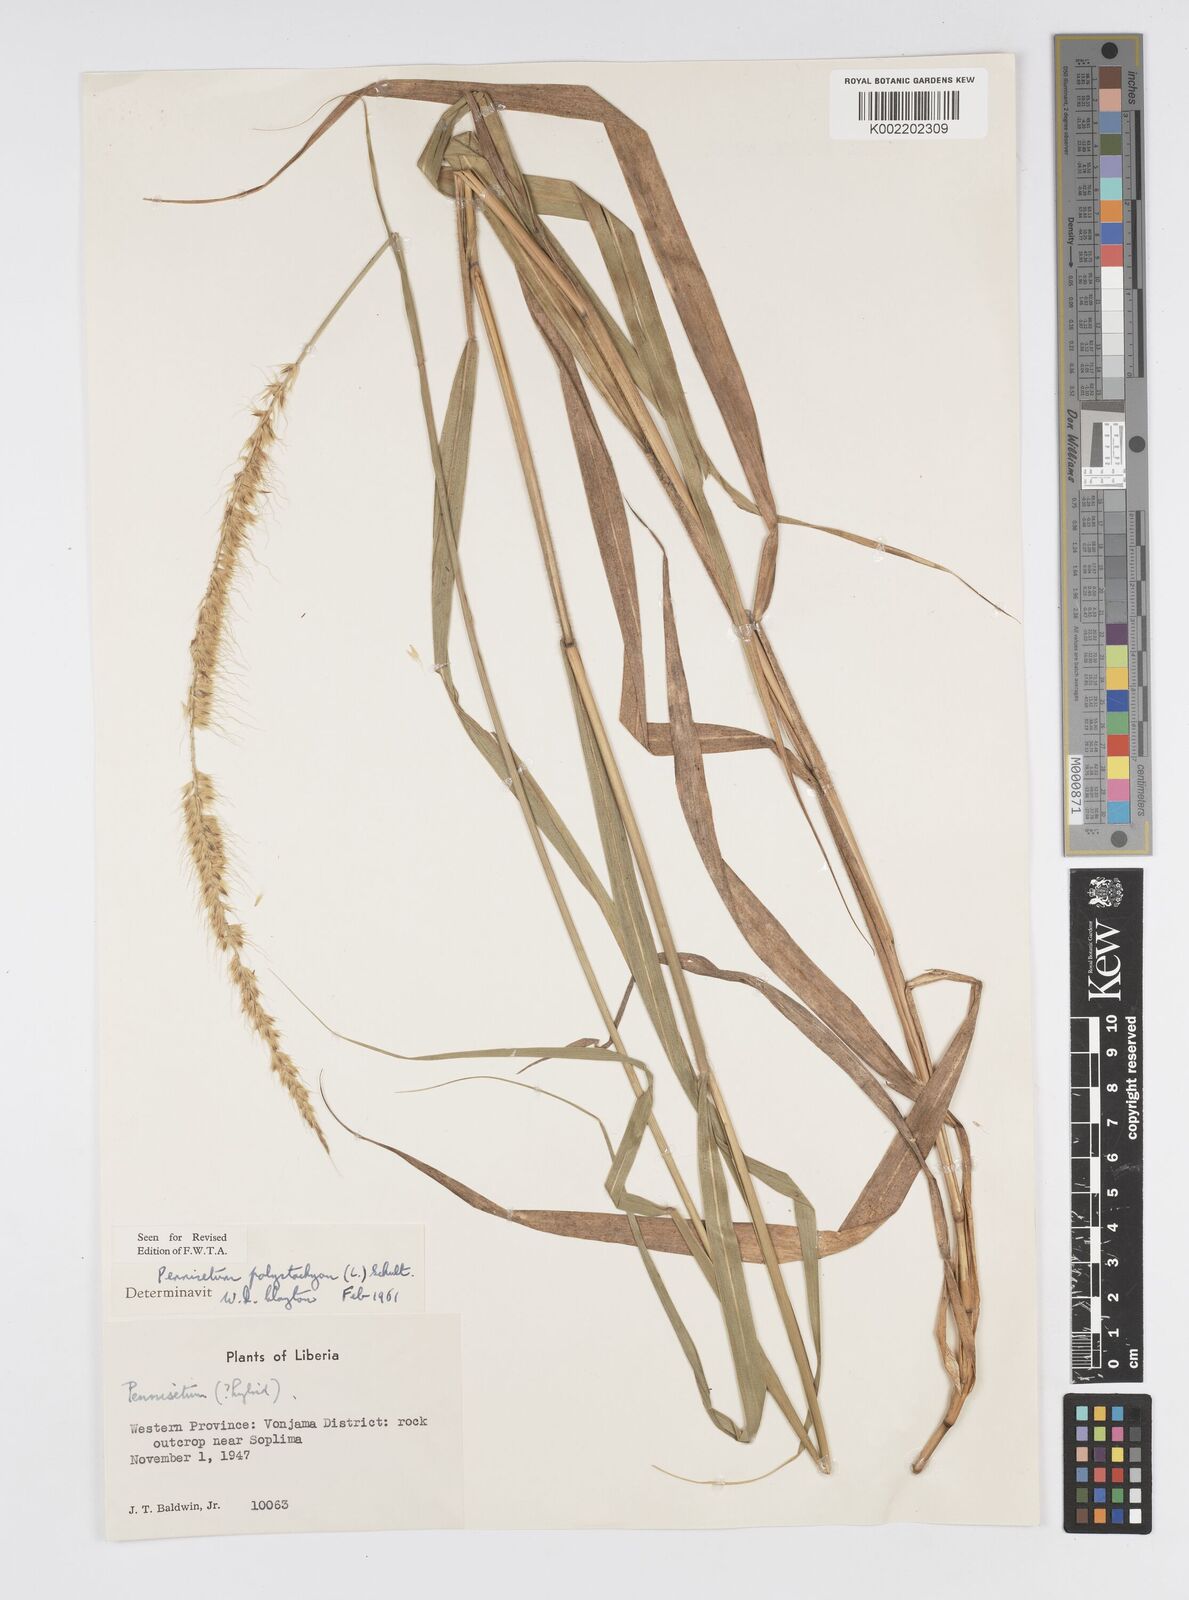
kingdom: Plantae
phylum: Tracheophyta
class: Liliopsida
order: Poales
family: Poaceae
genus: Setaria
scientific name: Setaria parviflora
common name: Knotroot bristle-grass
